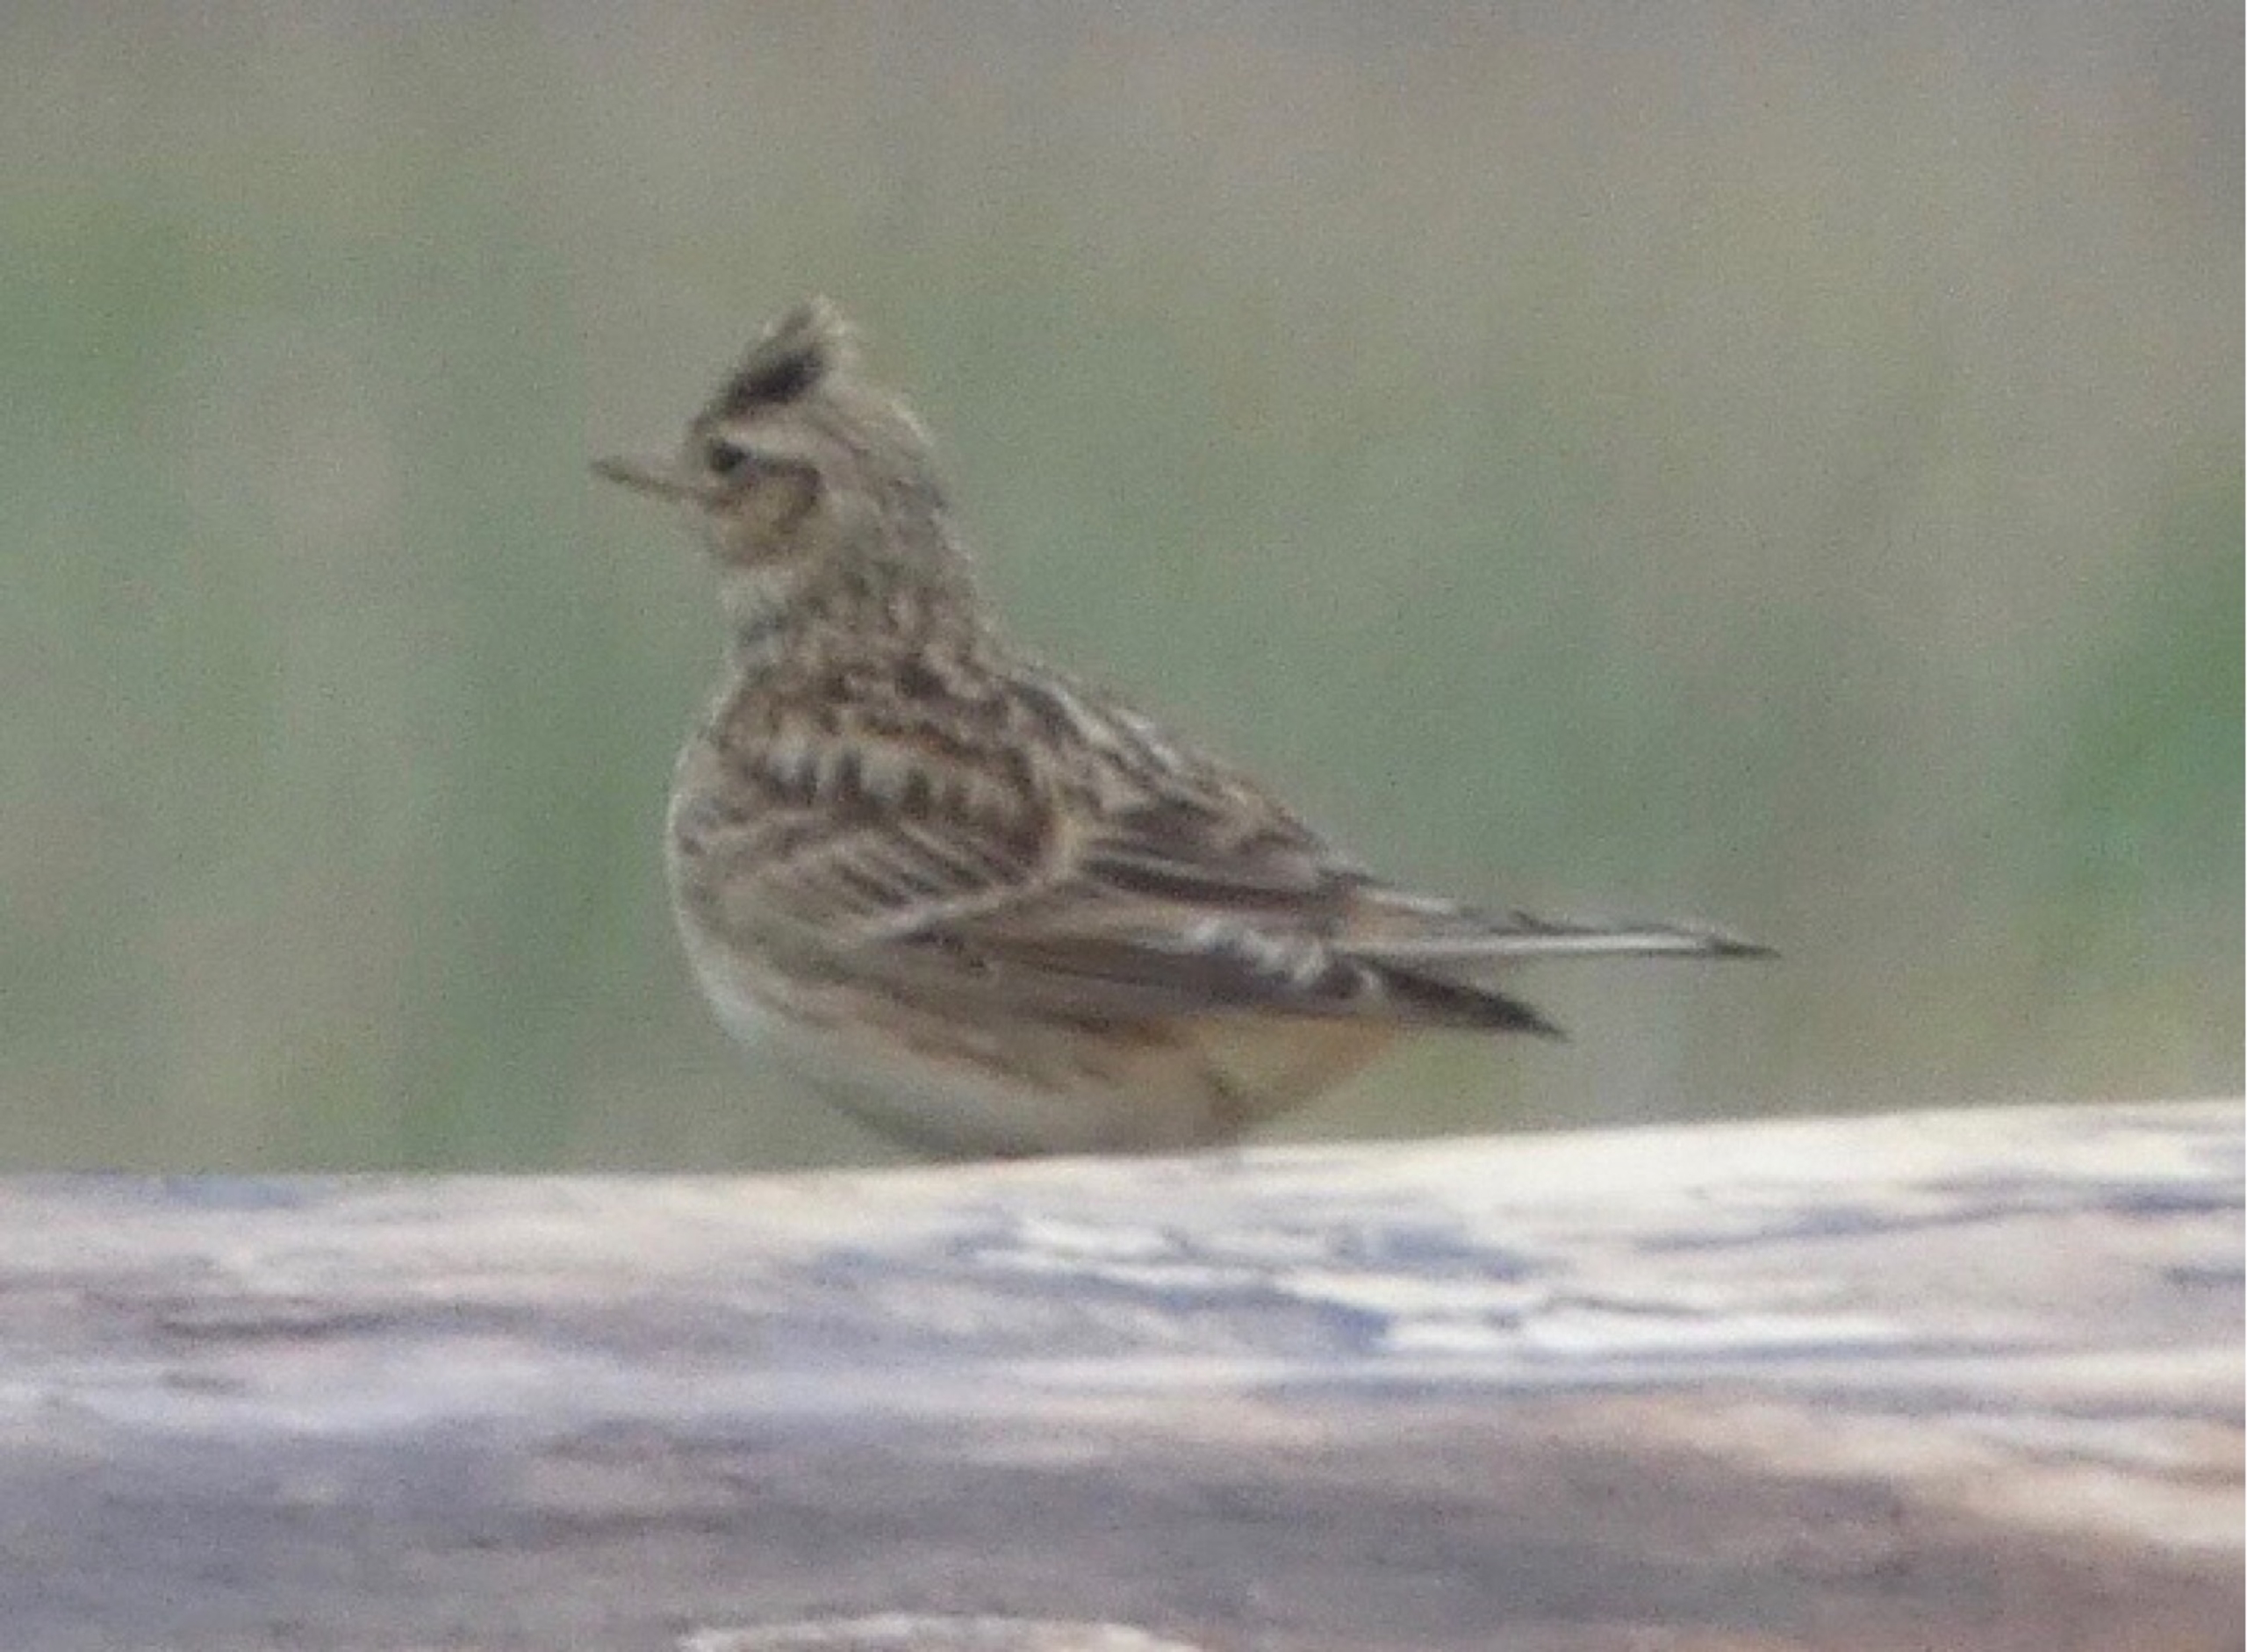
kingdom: Animalia
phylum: Chordata
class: Aves
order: Passeriformes
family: Alaudidae
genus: Alauda
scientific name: Alauda arvensis
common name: Sanglærke
